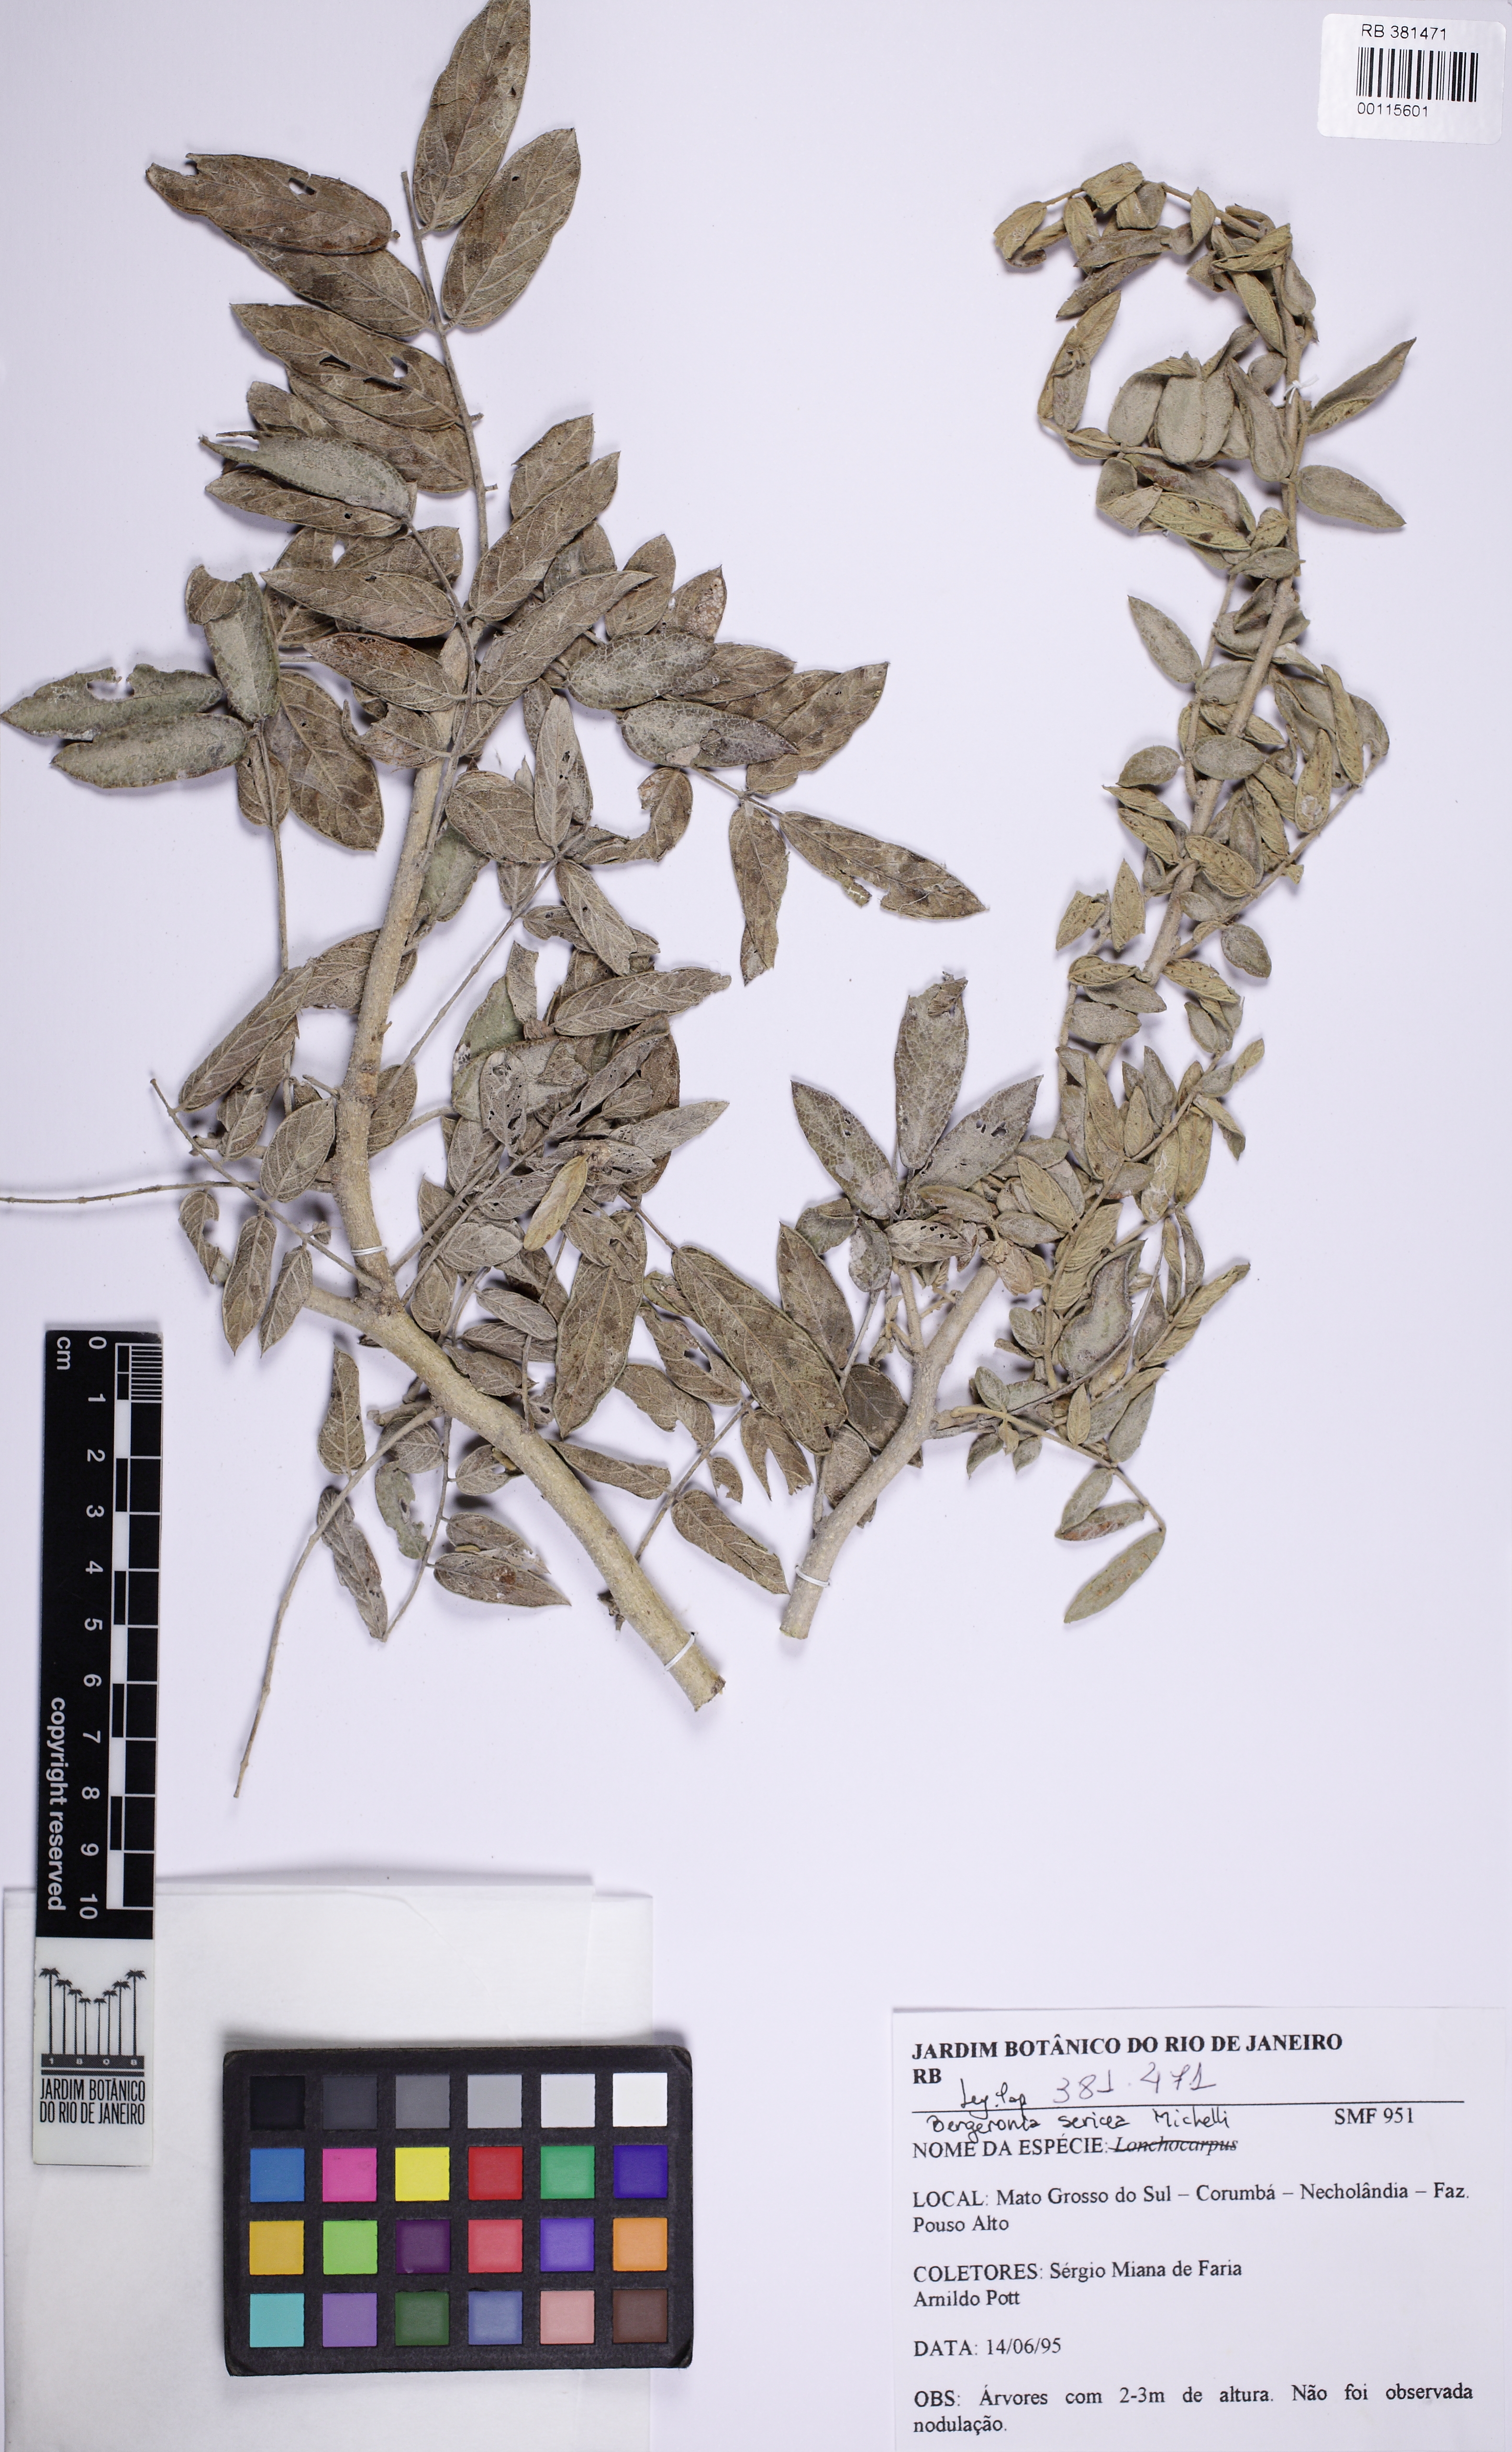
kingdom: Plantae
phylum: Tracheophyta
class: Magnoliopsida
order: Fabales
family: Fabaceae
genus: Muellera
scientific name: Muellera sericea
